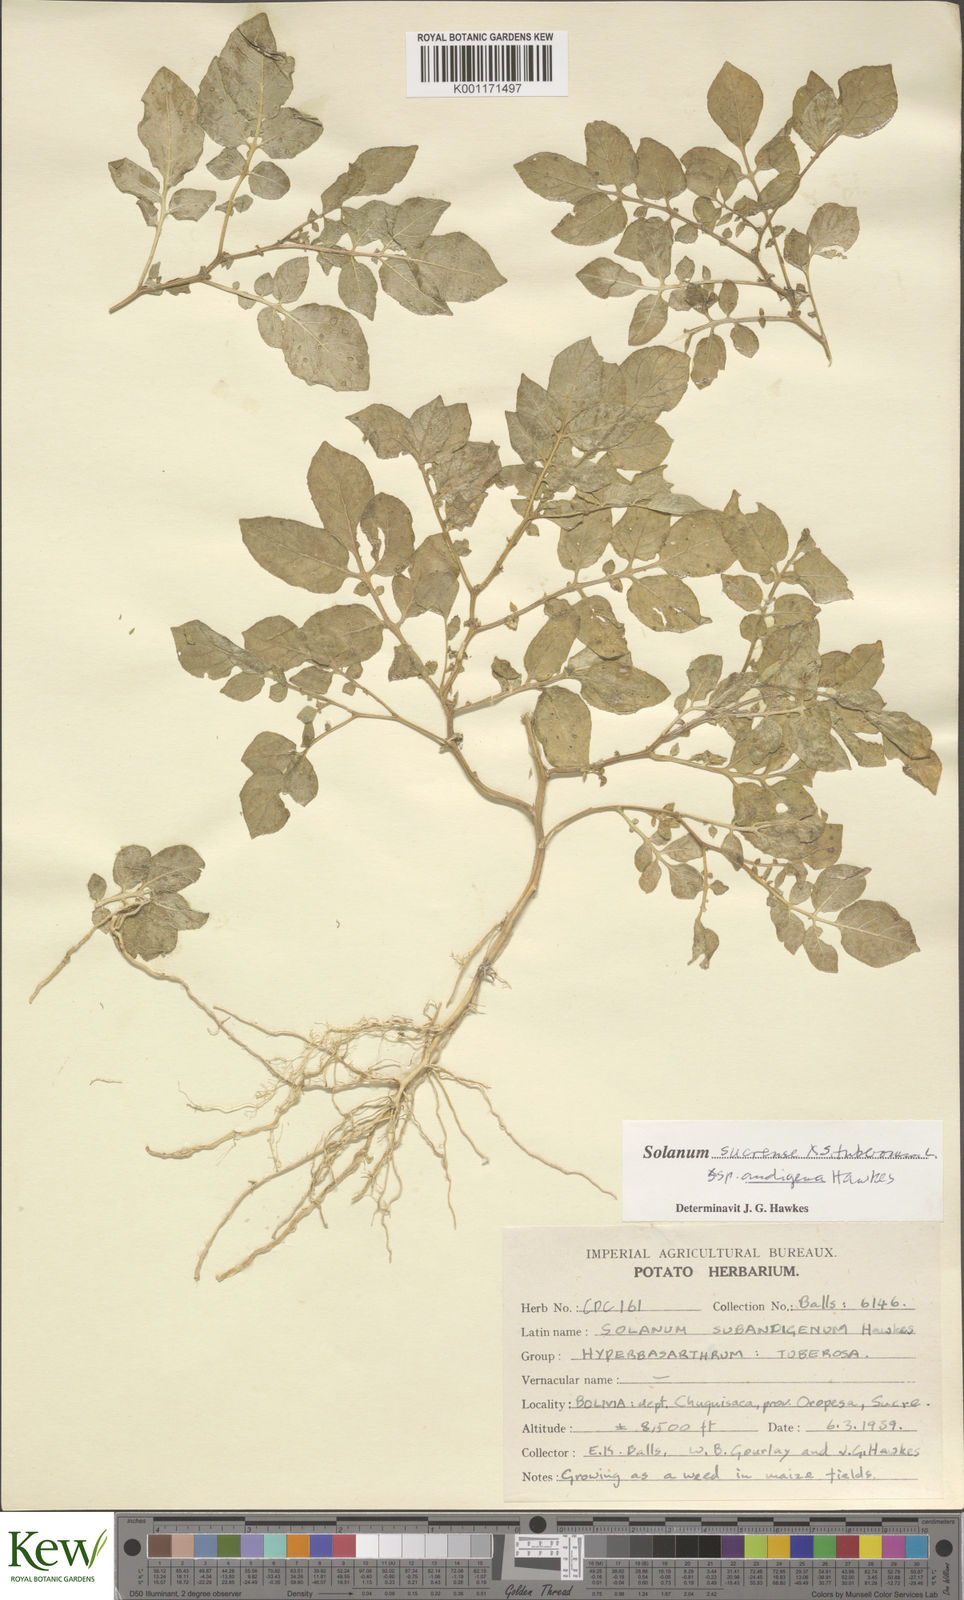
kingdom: Plantae
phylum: Tracheophyta
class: Magnoliopsida
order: Solanales
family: Solanaceae
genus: Solanum
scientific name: Solanum tuberosum
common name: Potato
